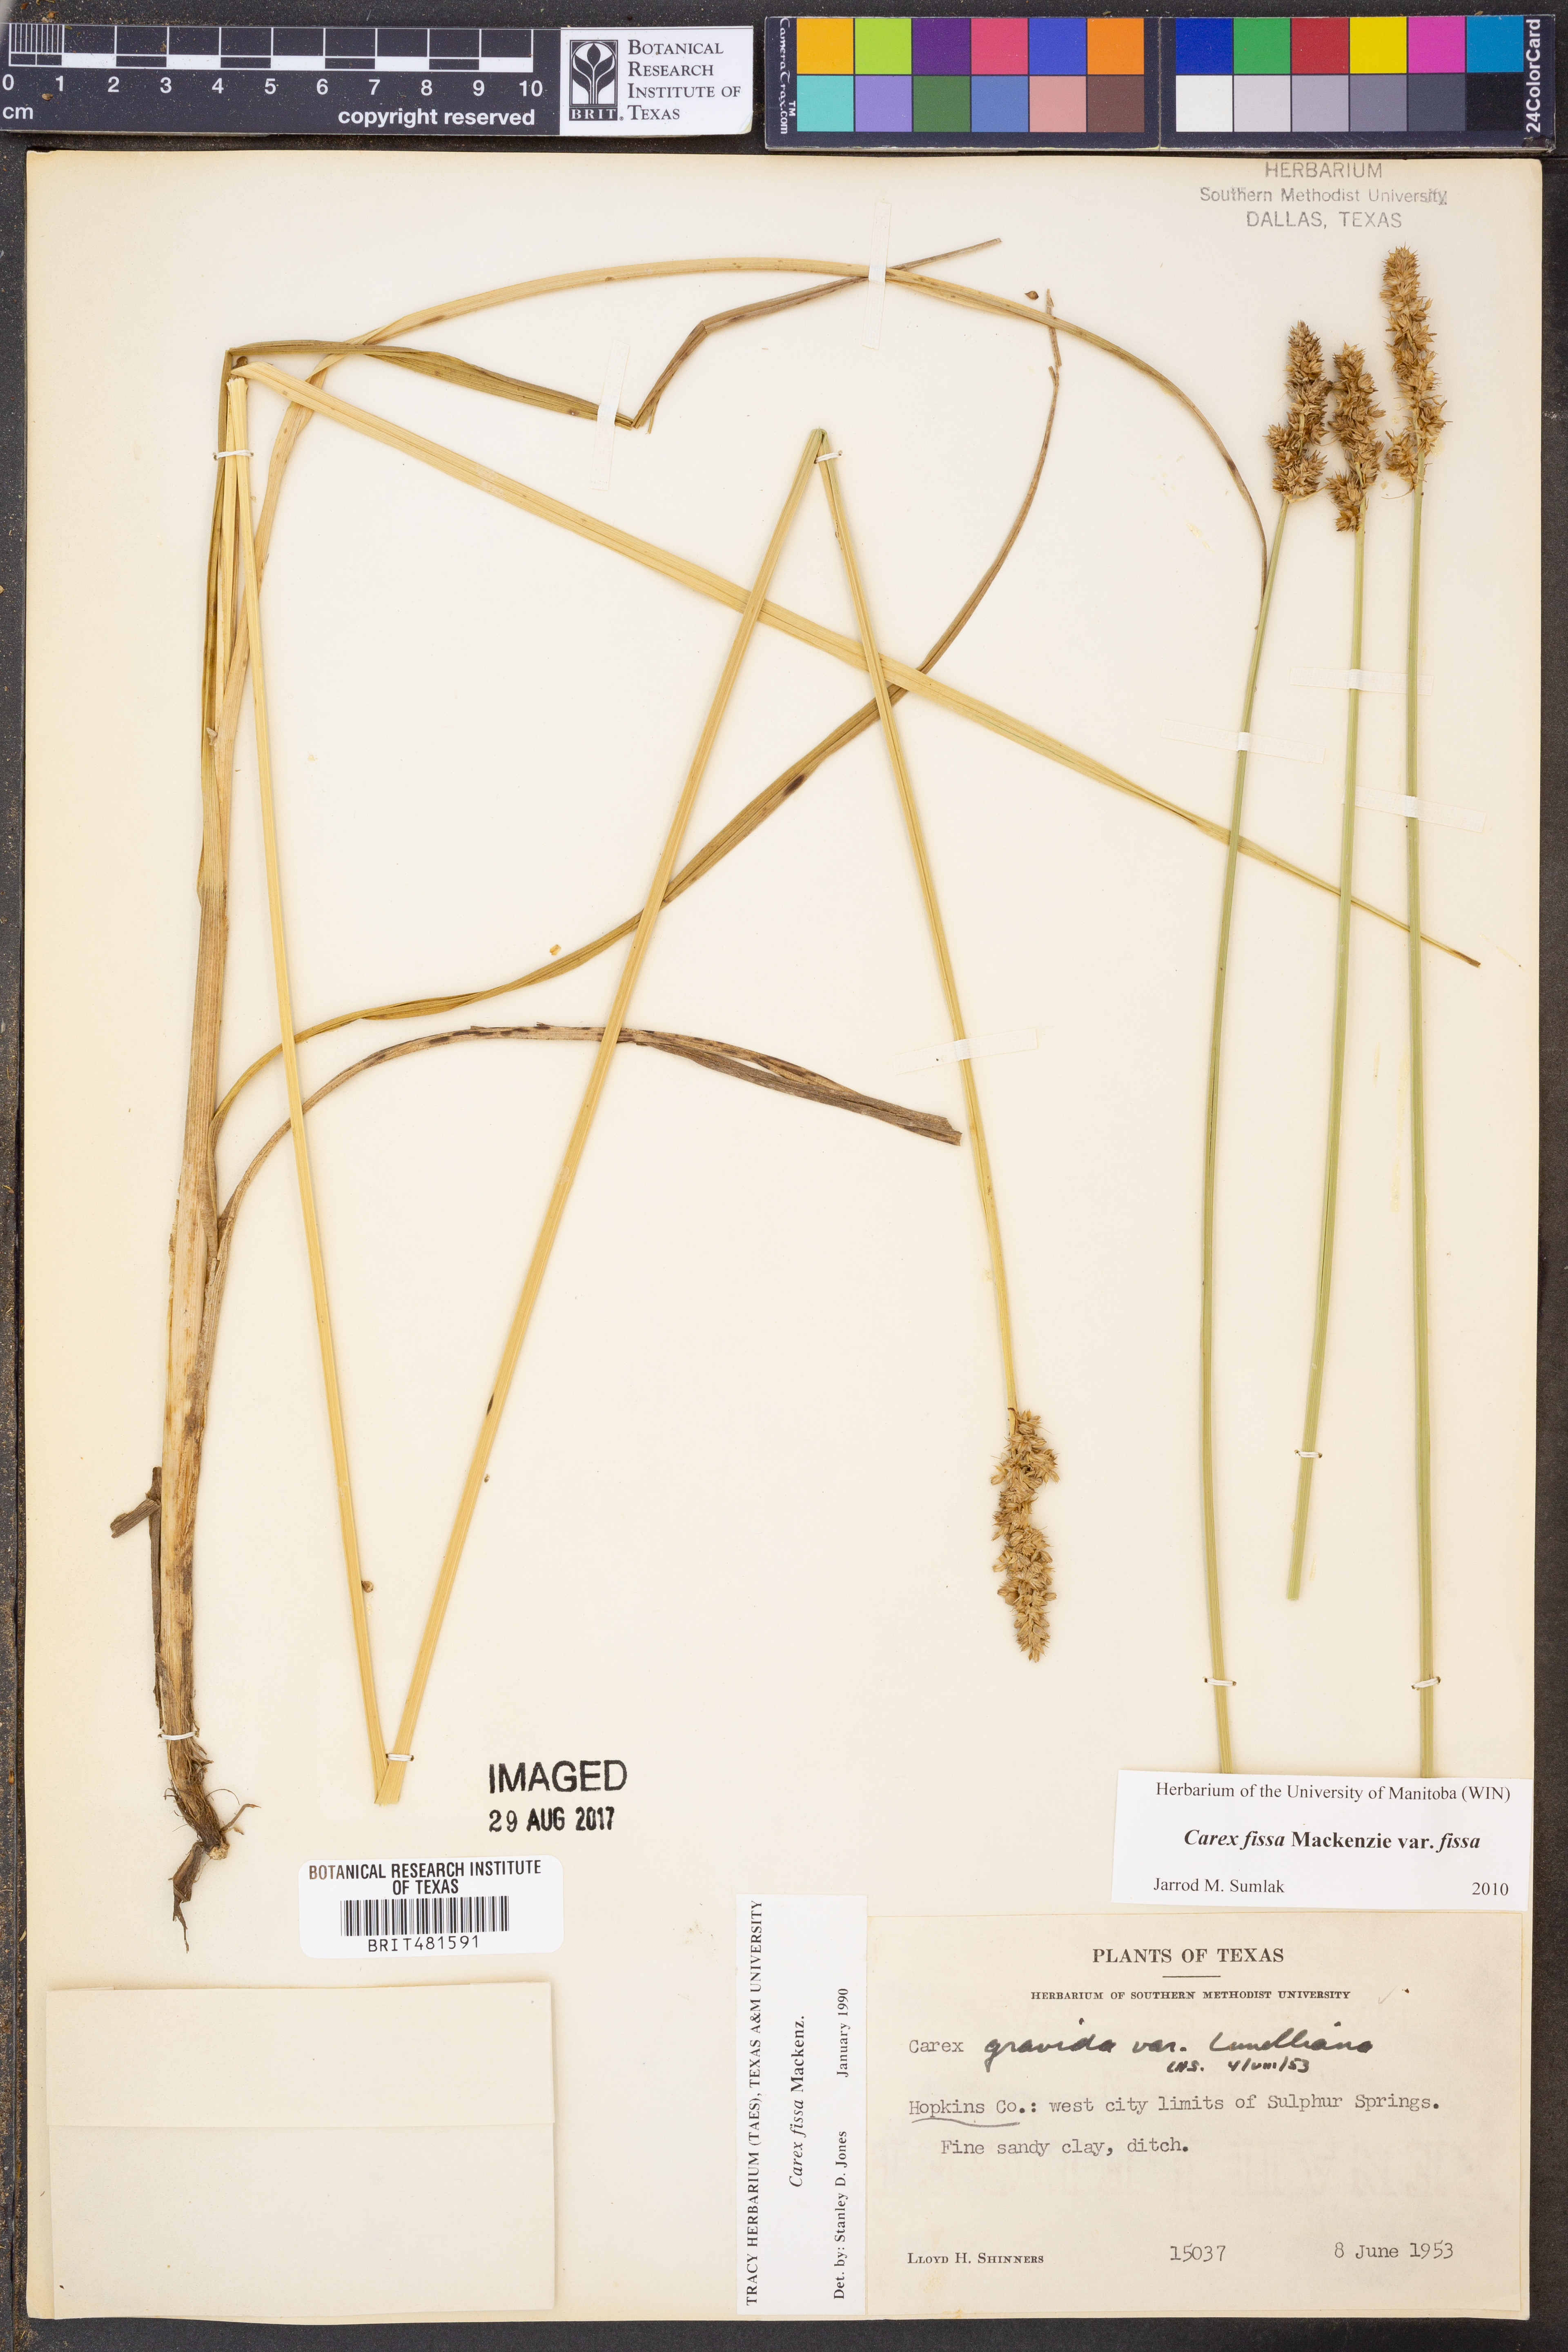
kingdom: Plantae
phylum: Tracheophyta
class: Liliopsida
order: Poales
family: Cyperaceae
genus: Carex
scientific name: Carex fissa
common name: Hammock sedge
